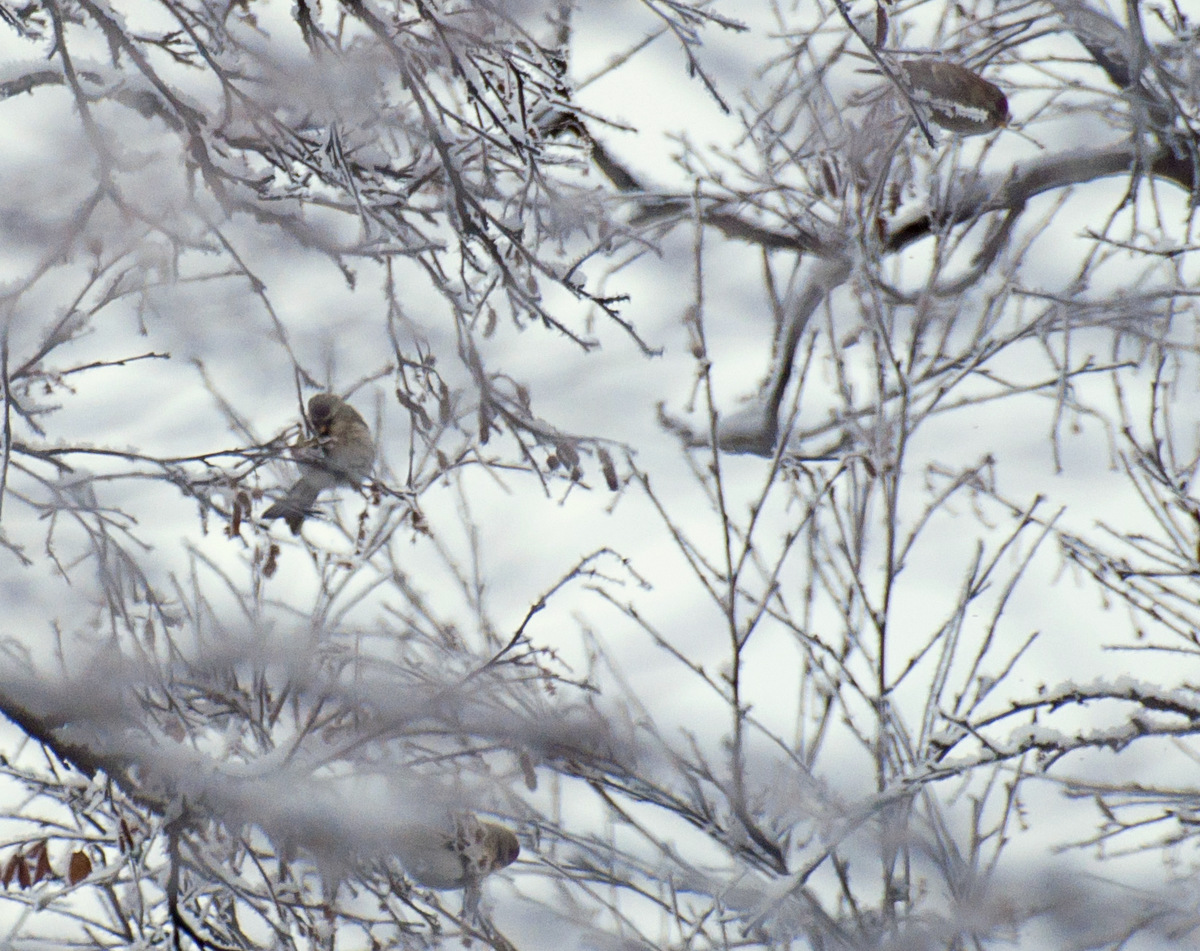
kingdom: Animalia
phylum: Chordata
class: Aves
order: Passeriformes
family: Fringillidae
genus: Acanthis
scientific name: Acanthis hornemanni
